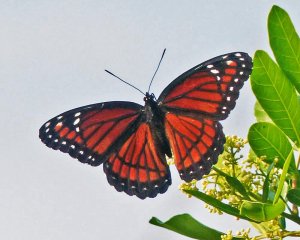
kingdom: Animalia
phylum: Arthropoda
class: Insecta
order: Lepidoptera
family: Nymphalidae
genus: Limenitis
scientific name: Limenitis archippus
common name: Viceroy
